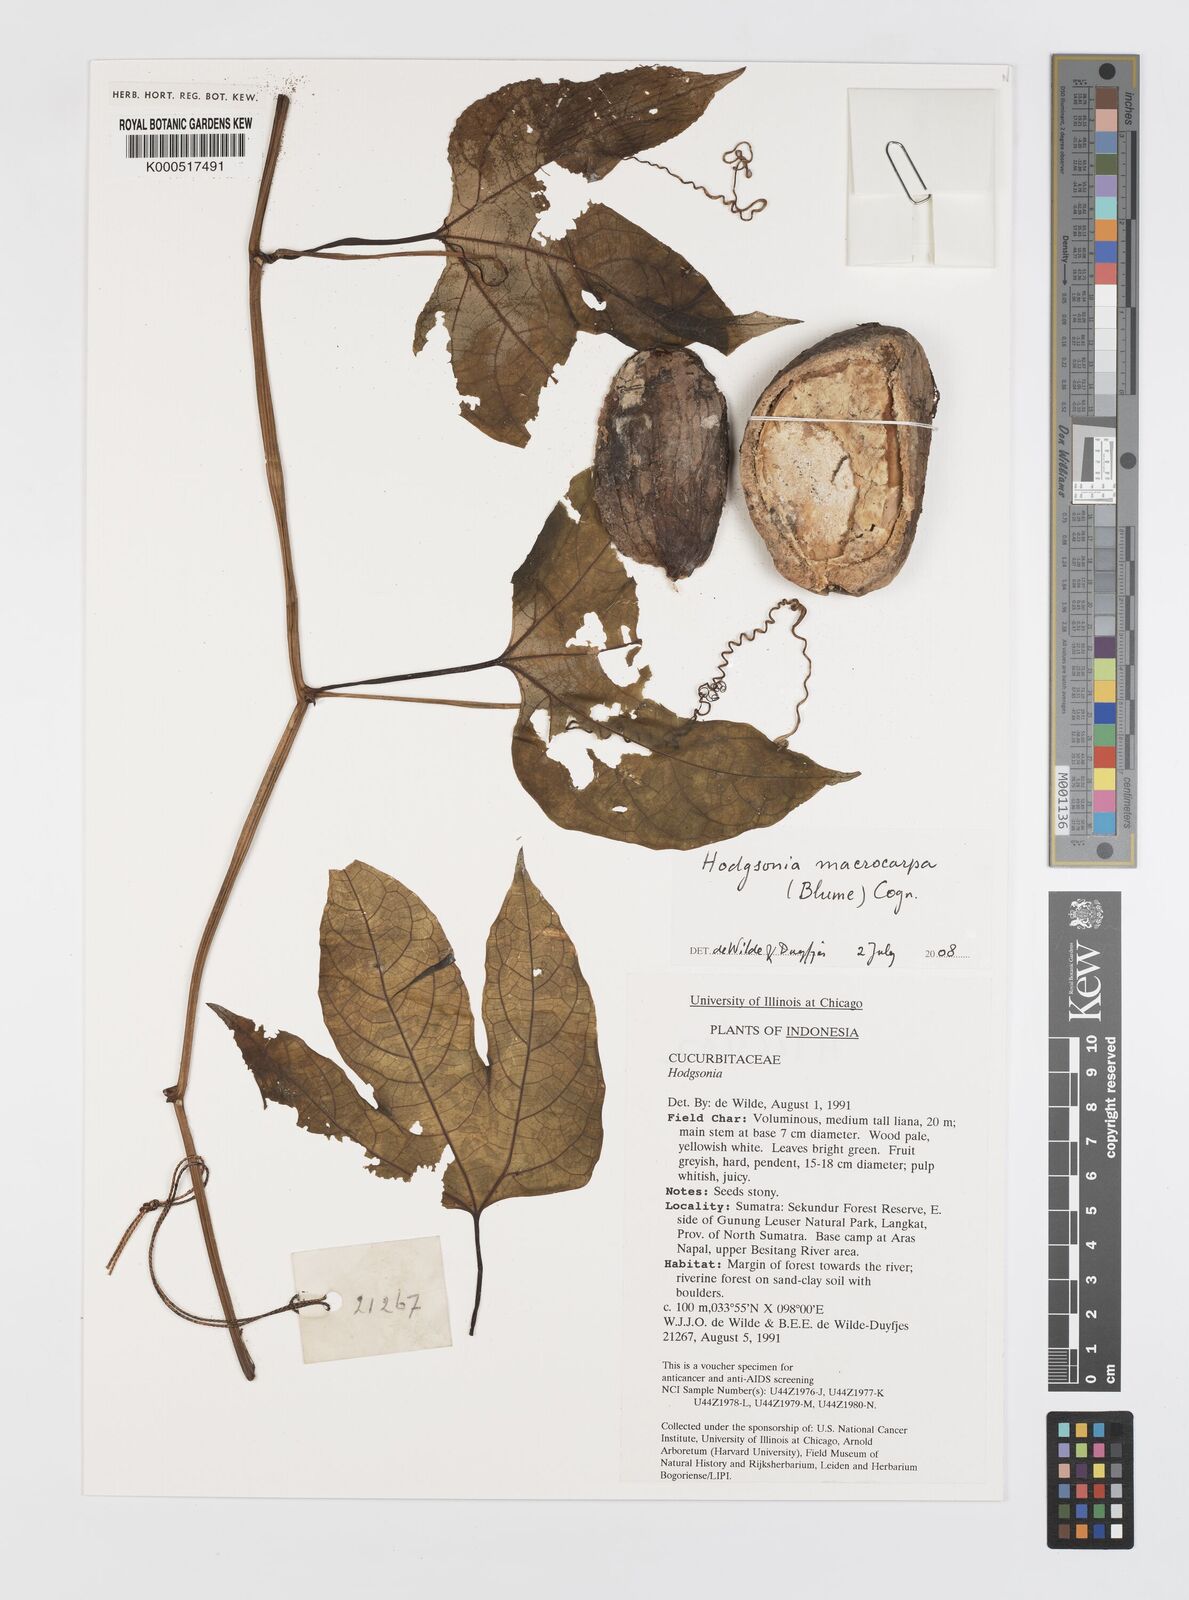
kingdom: Plantae
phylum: Tracheophyta
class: Magnoliopsida
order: Cucurbitales
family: Cucurbitaceae
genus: Hodgsonia
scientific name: Hodgsonia macrocarpa
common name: Chinese lardfruit
